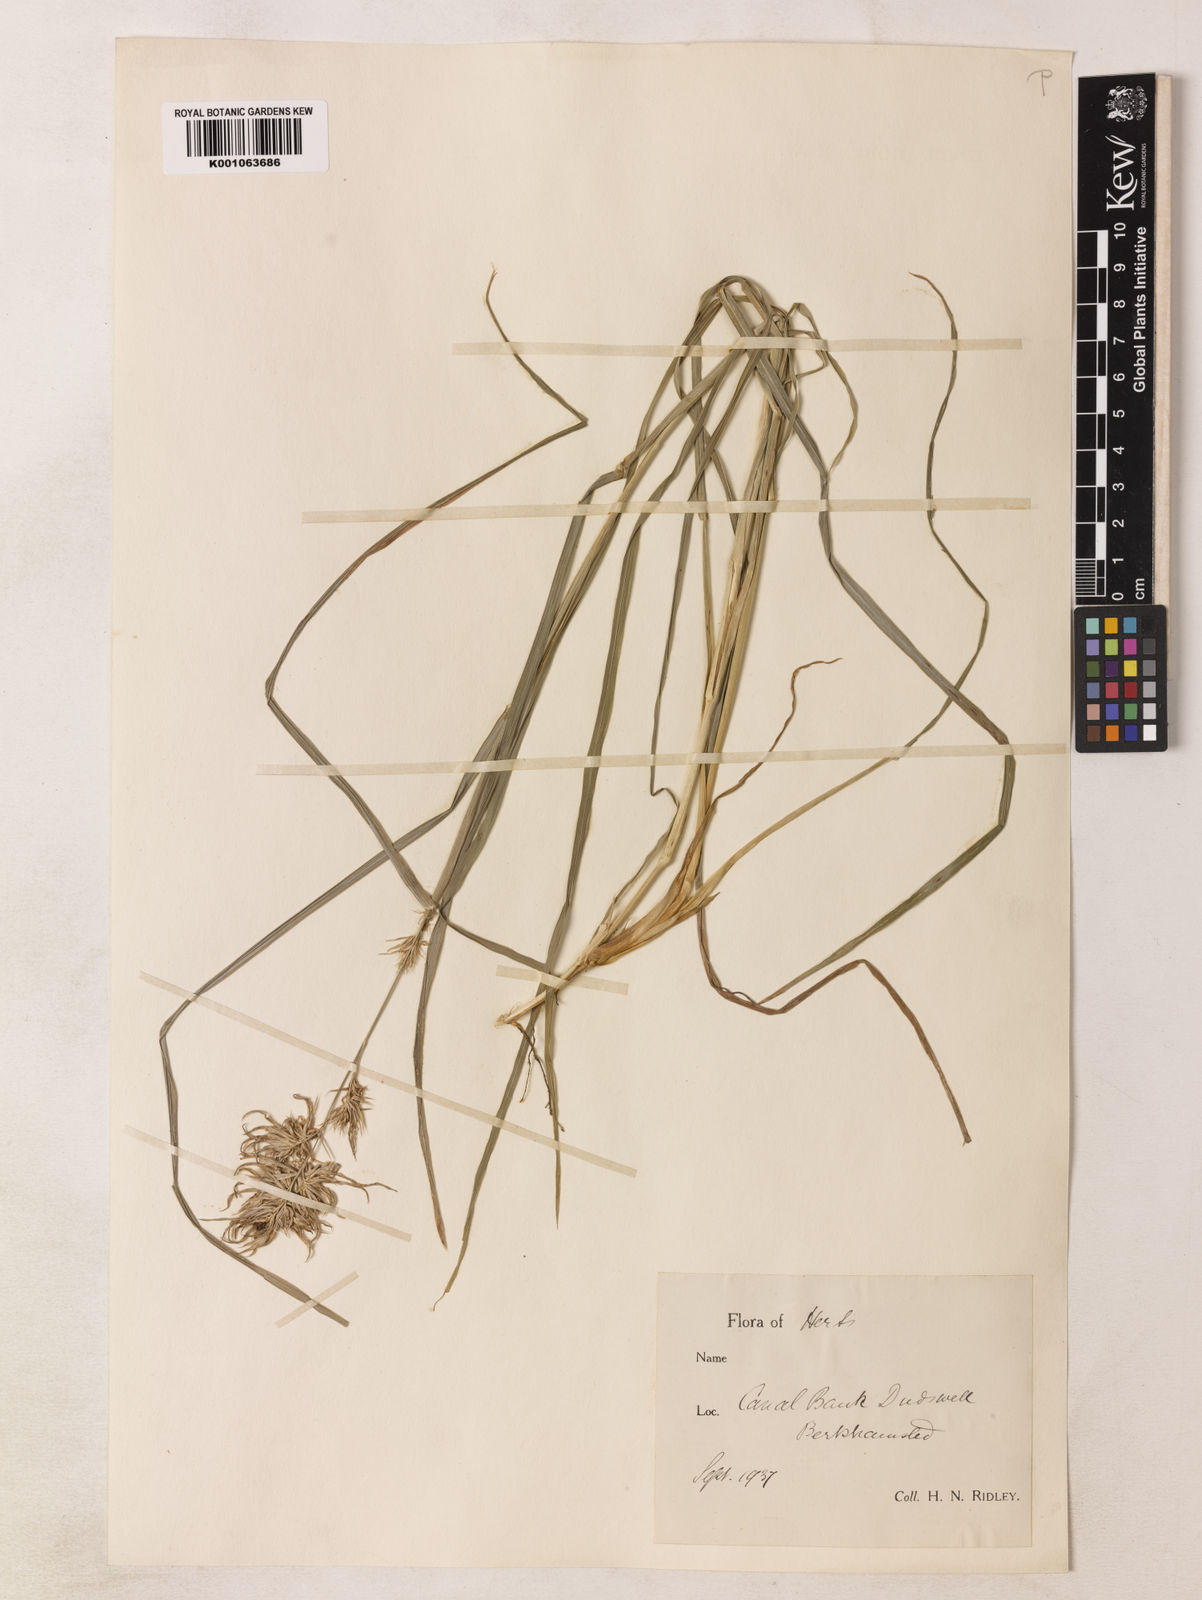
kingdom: Plantae
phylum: Tracheophyta
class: Liliopsida
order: Poales
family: Poaceae
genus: Dactylis
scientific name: Dactylis glomerata
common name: Orchardgrass
